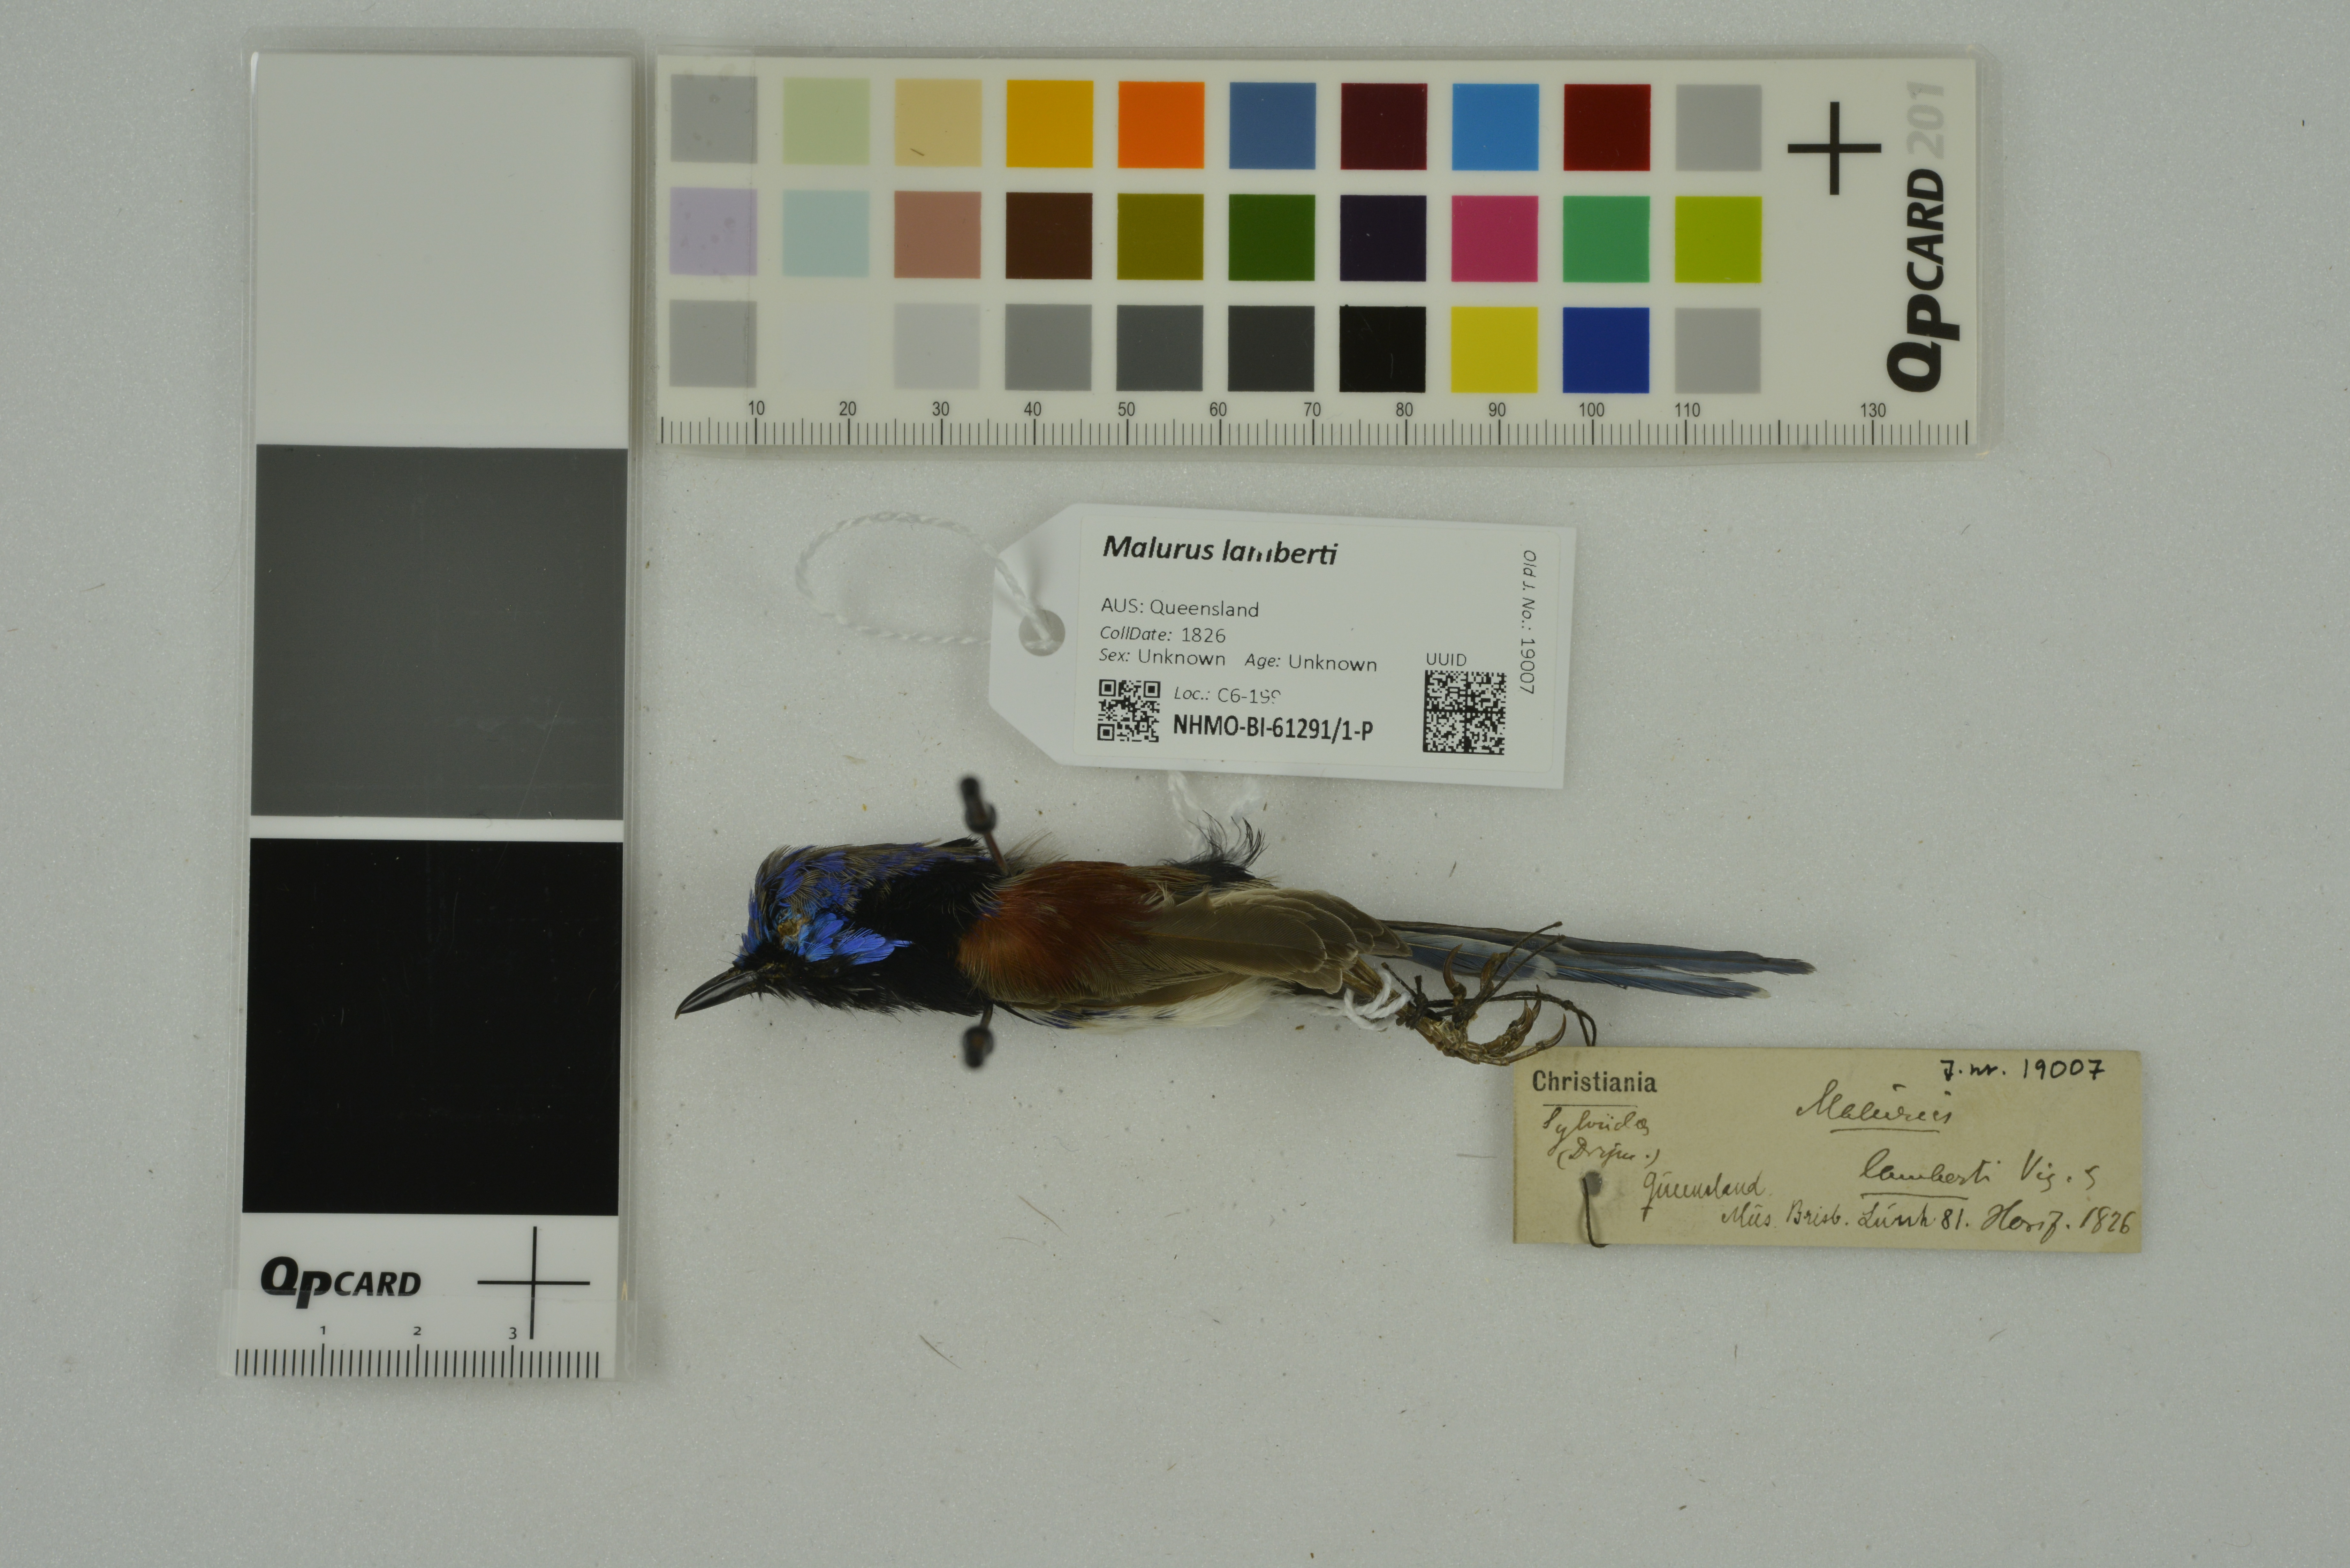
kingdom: Animalia
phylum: Chordata
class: Aves
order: Passeriformes
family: Maluridae
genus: Malurus
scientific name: Malurus lamberti
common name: Variegated fairywren
